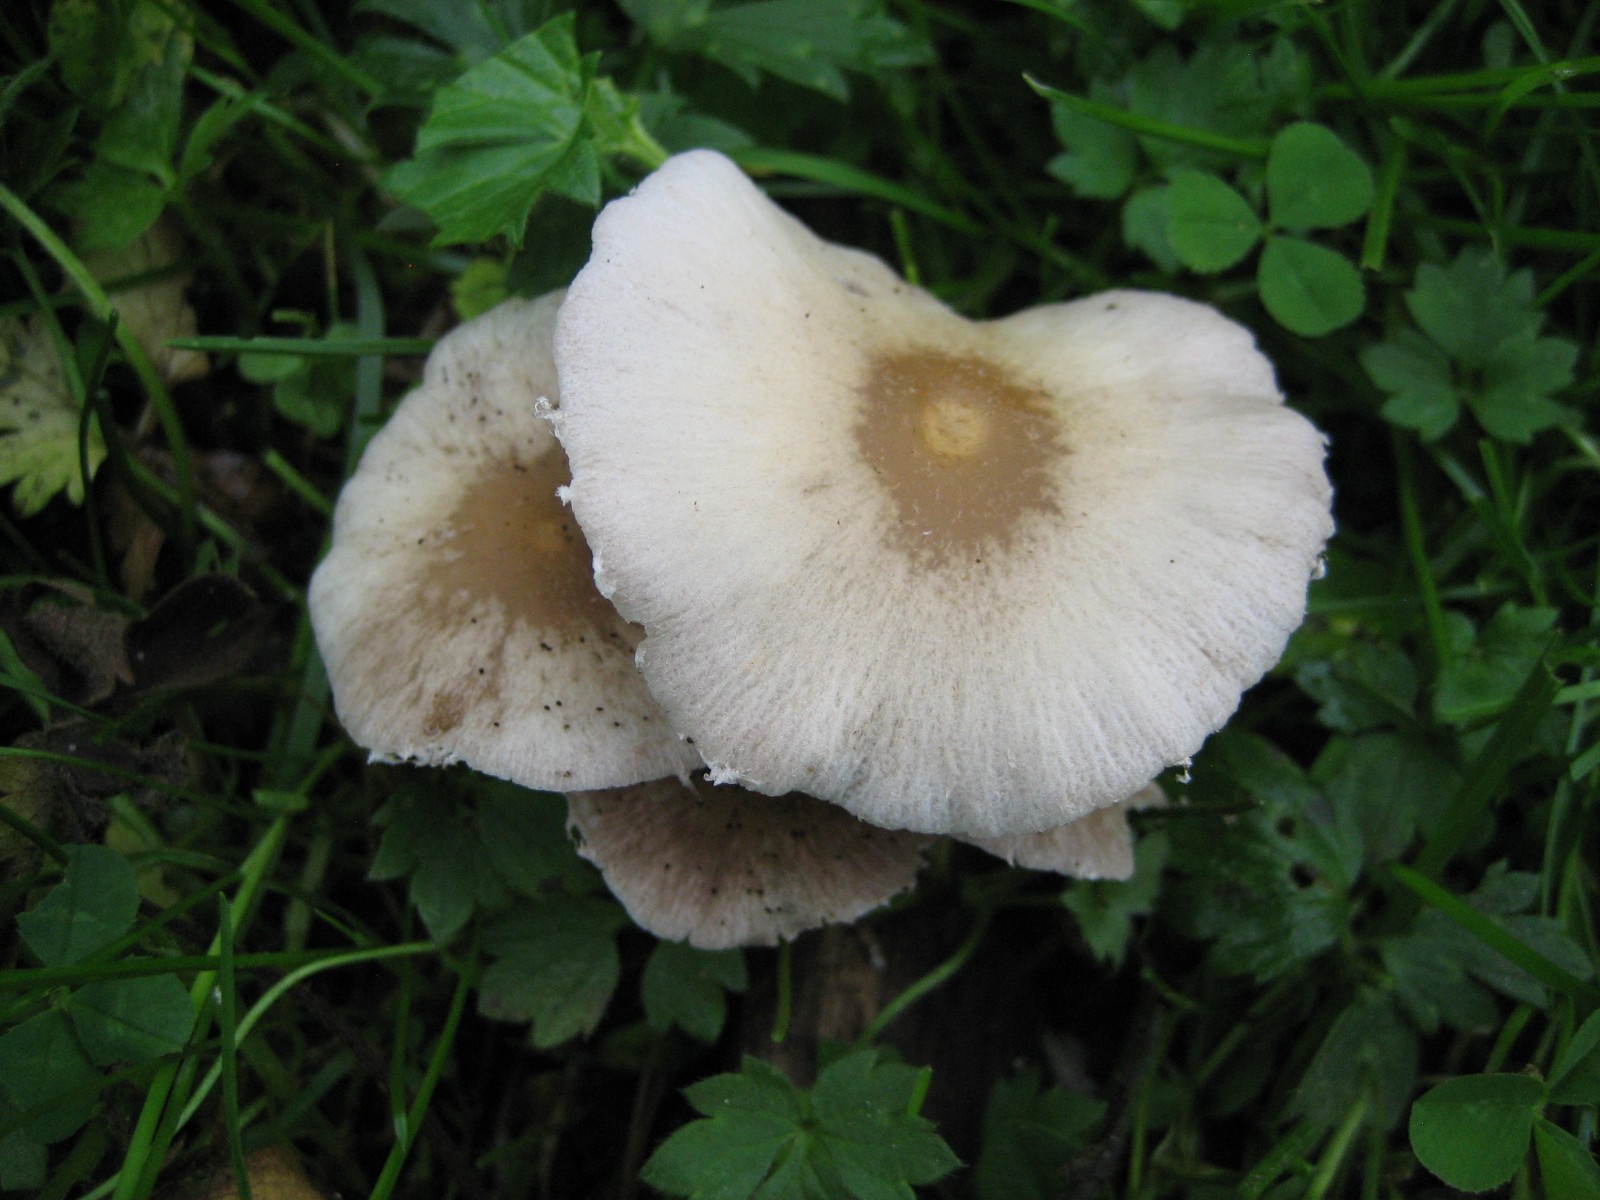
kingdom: Fungi
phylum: Basidiomycota
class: Agaricomycetes
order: Agaricales
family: Psathyrellaceae
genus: Candolleomyces
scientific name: Candolleomyces candolleanus
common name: Candolles mørkhat
